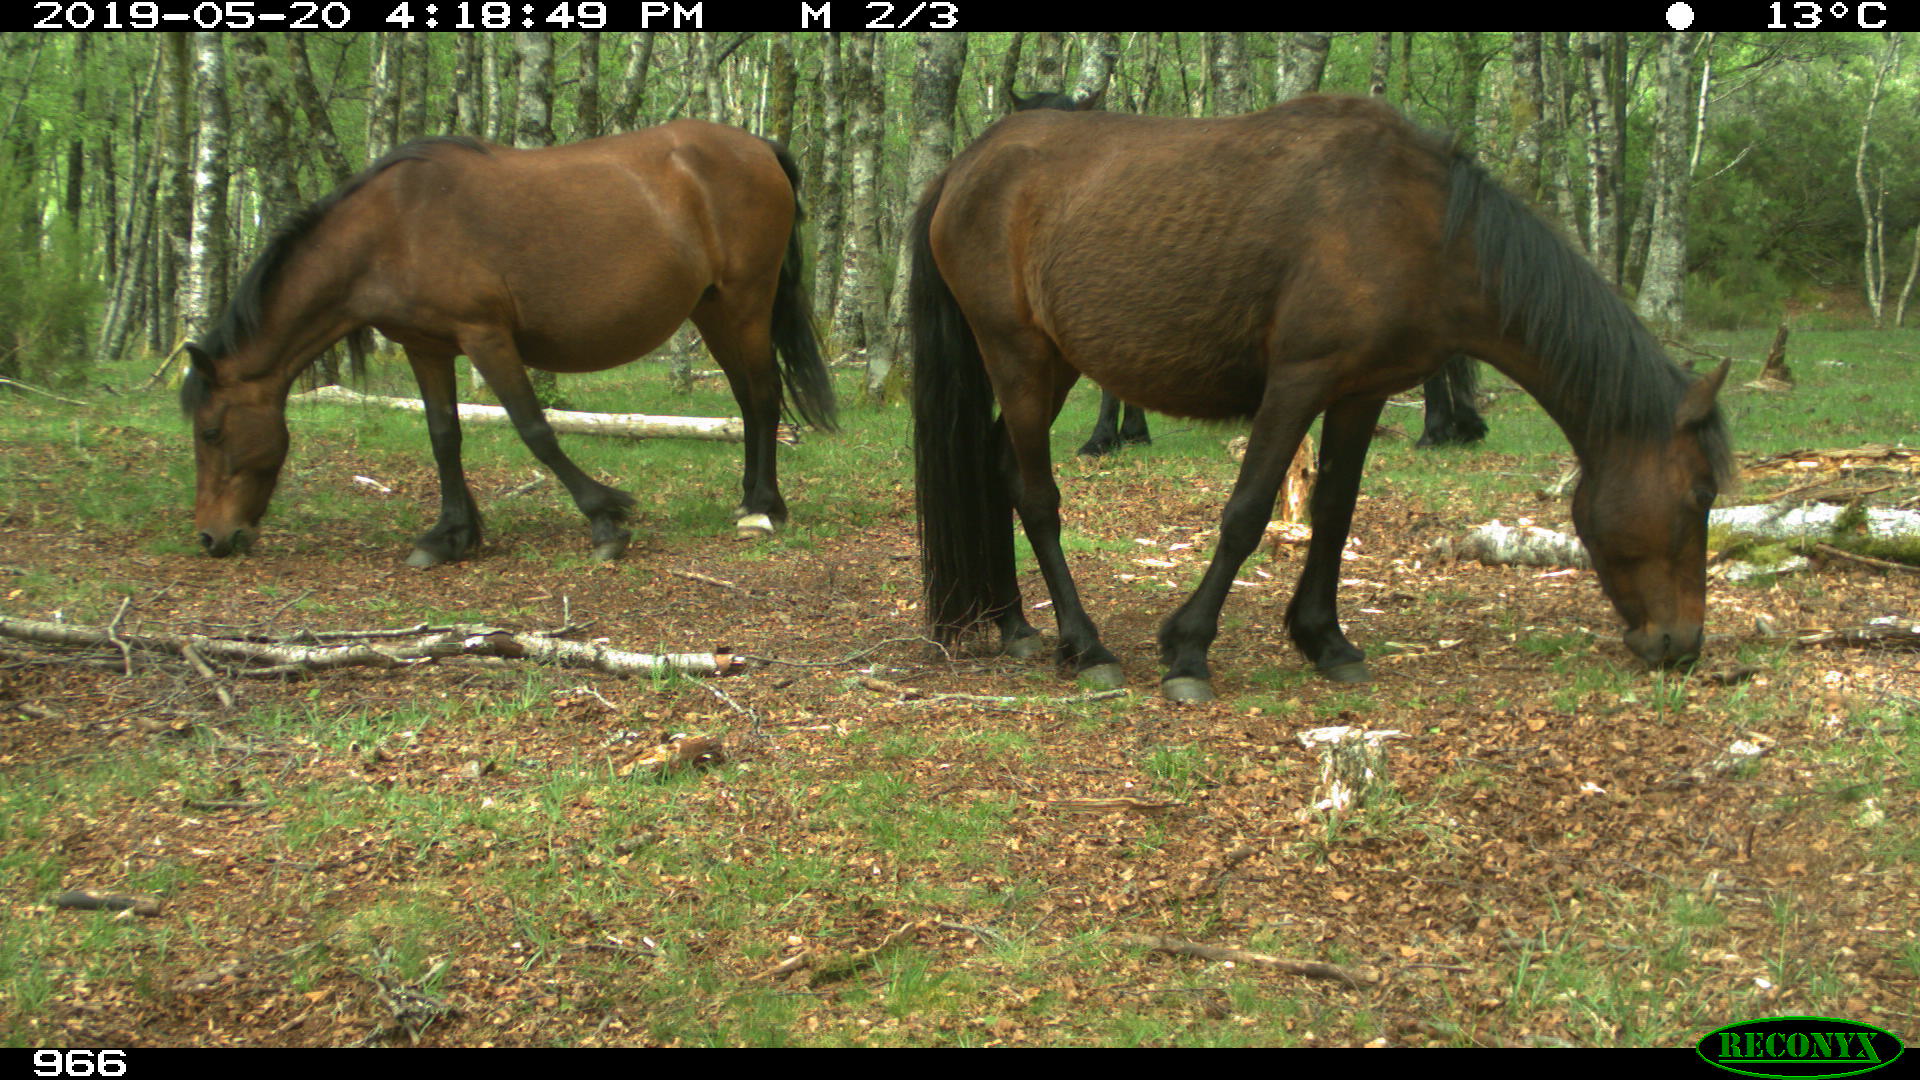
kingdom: Animalia
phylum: Chordata
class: Mammalia
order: Perissodactyla
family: Equidae
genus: Equus
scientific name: Equus caballus
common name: Horse
